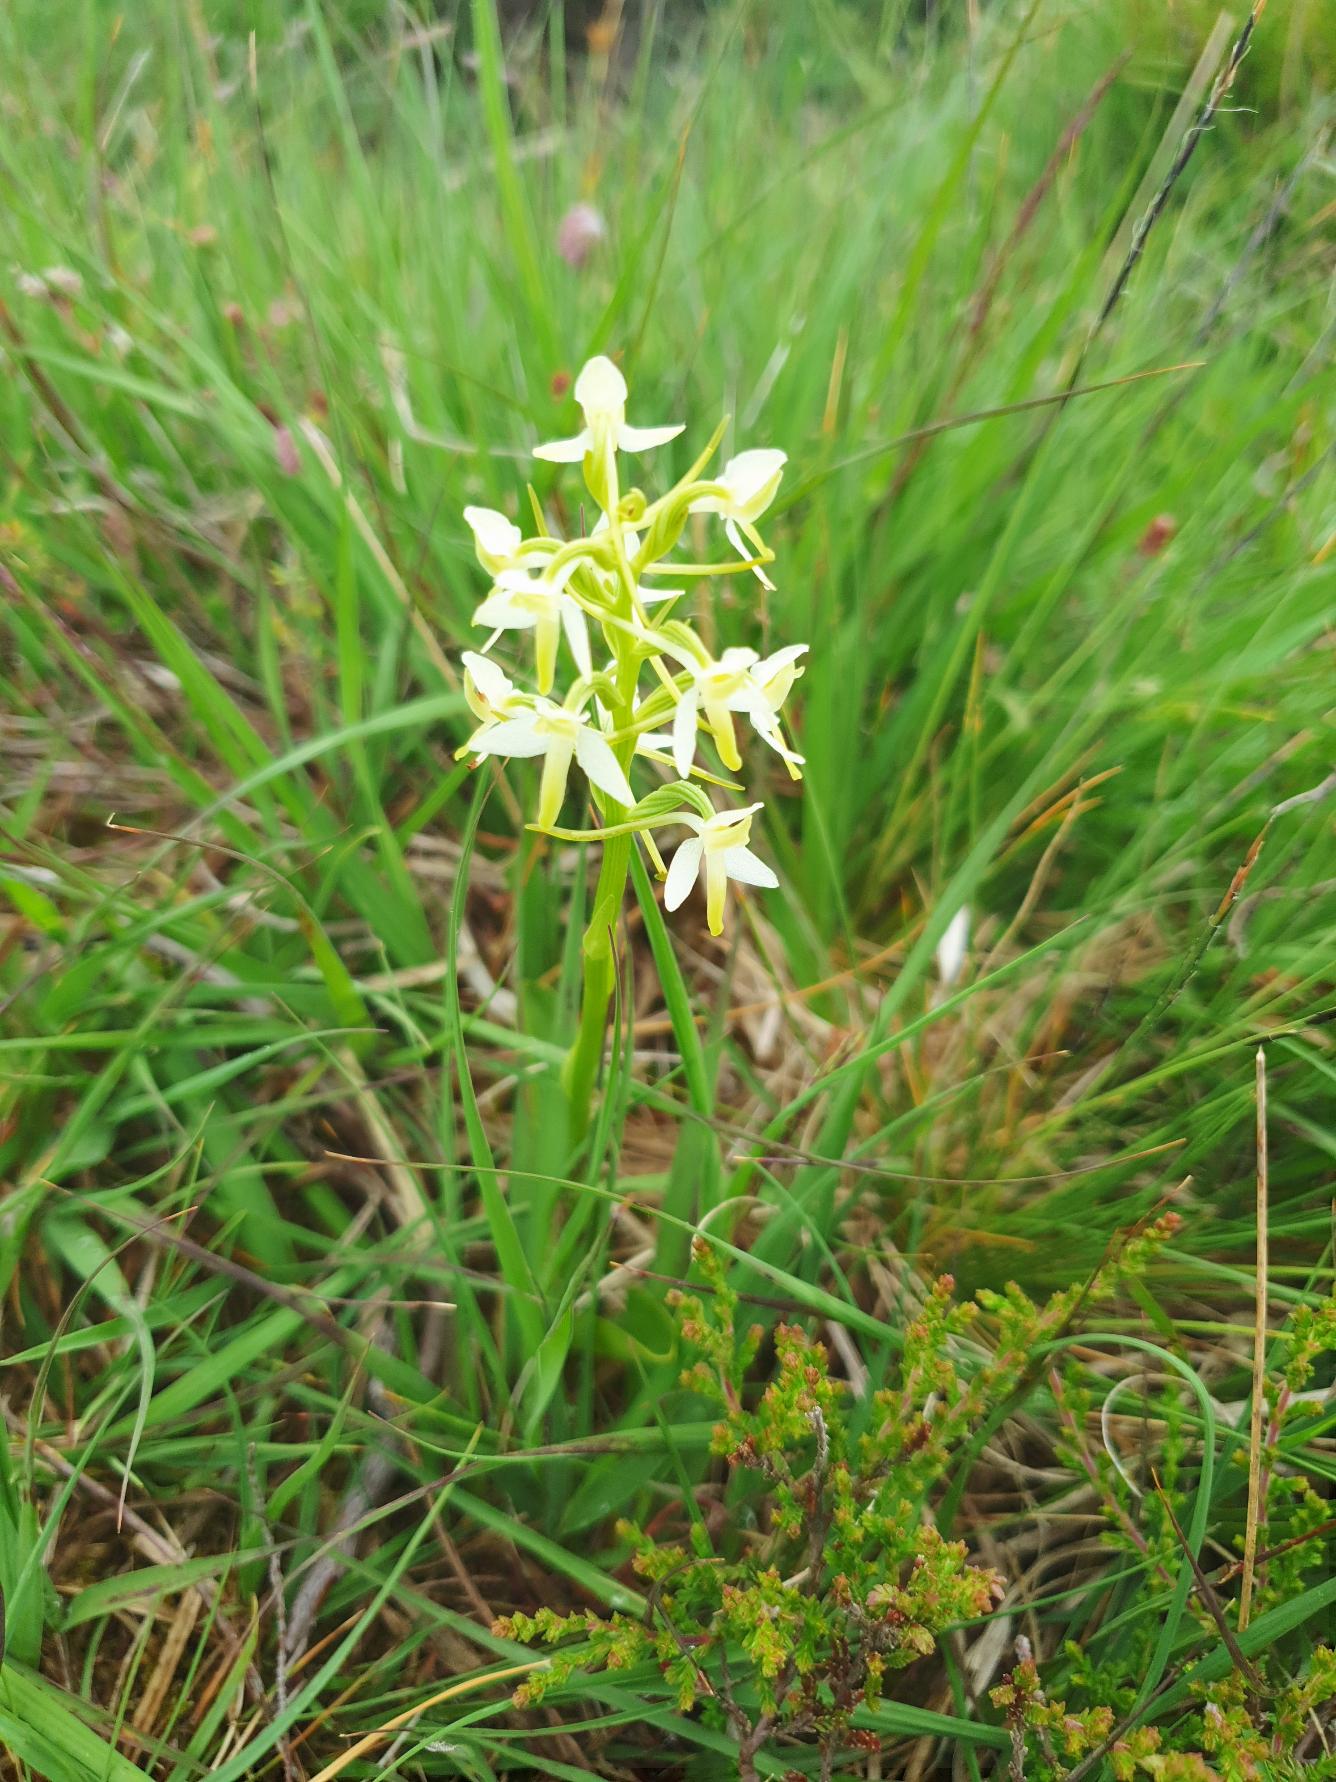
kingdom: Plantae
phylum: Tracheophyta
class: Liliopsida
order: Asparagales
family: Orchidaceae
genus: Platanthera
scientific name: Platanthera bifolia
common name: Bakke-gøgelilje
